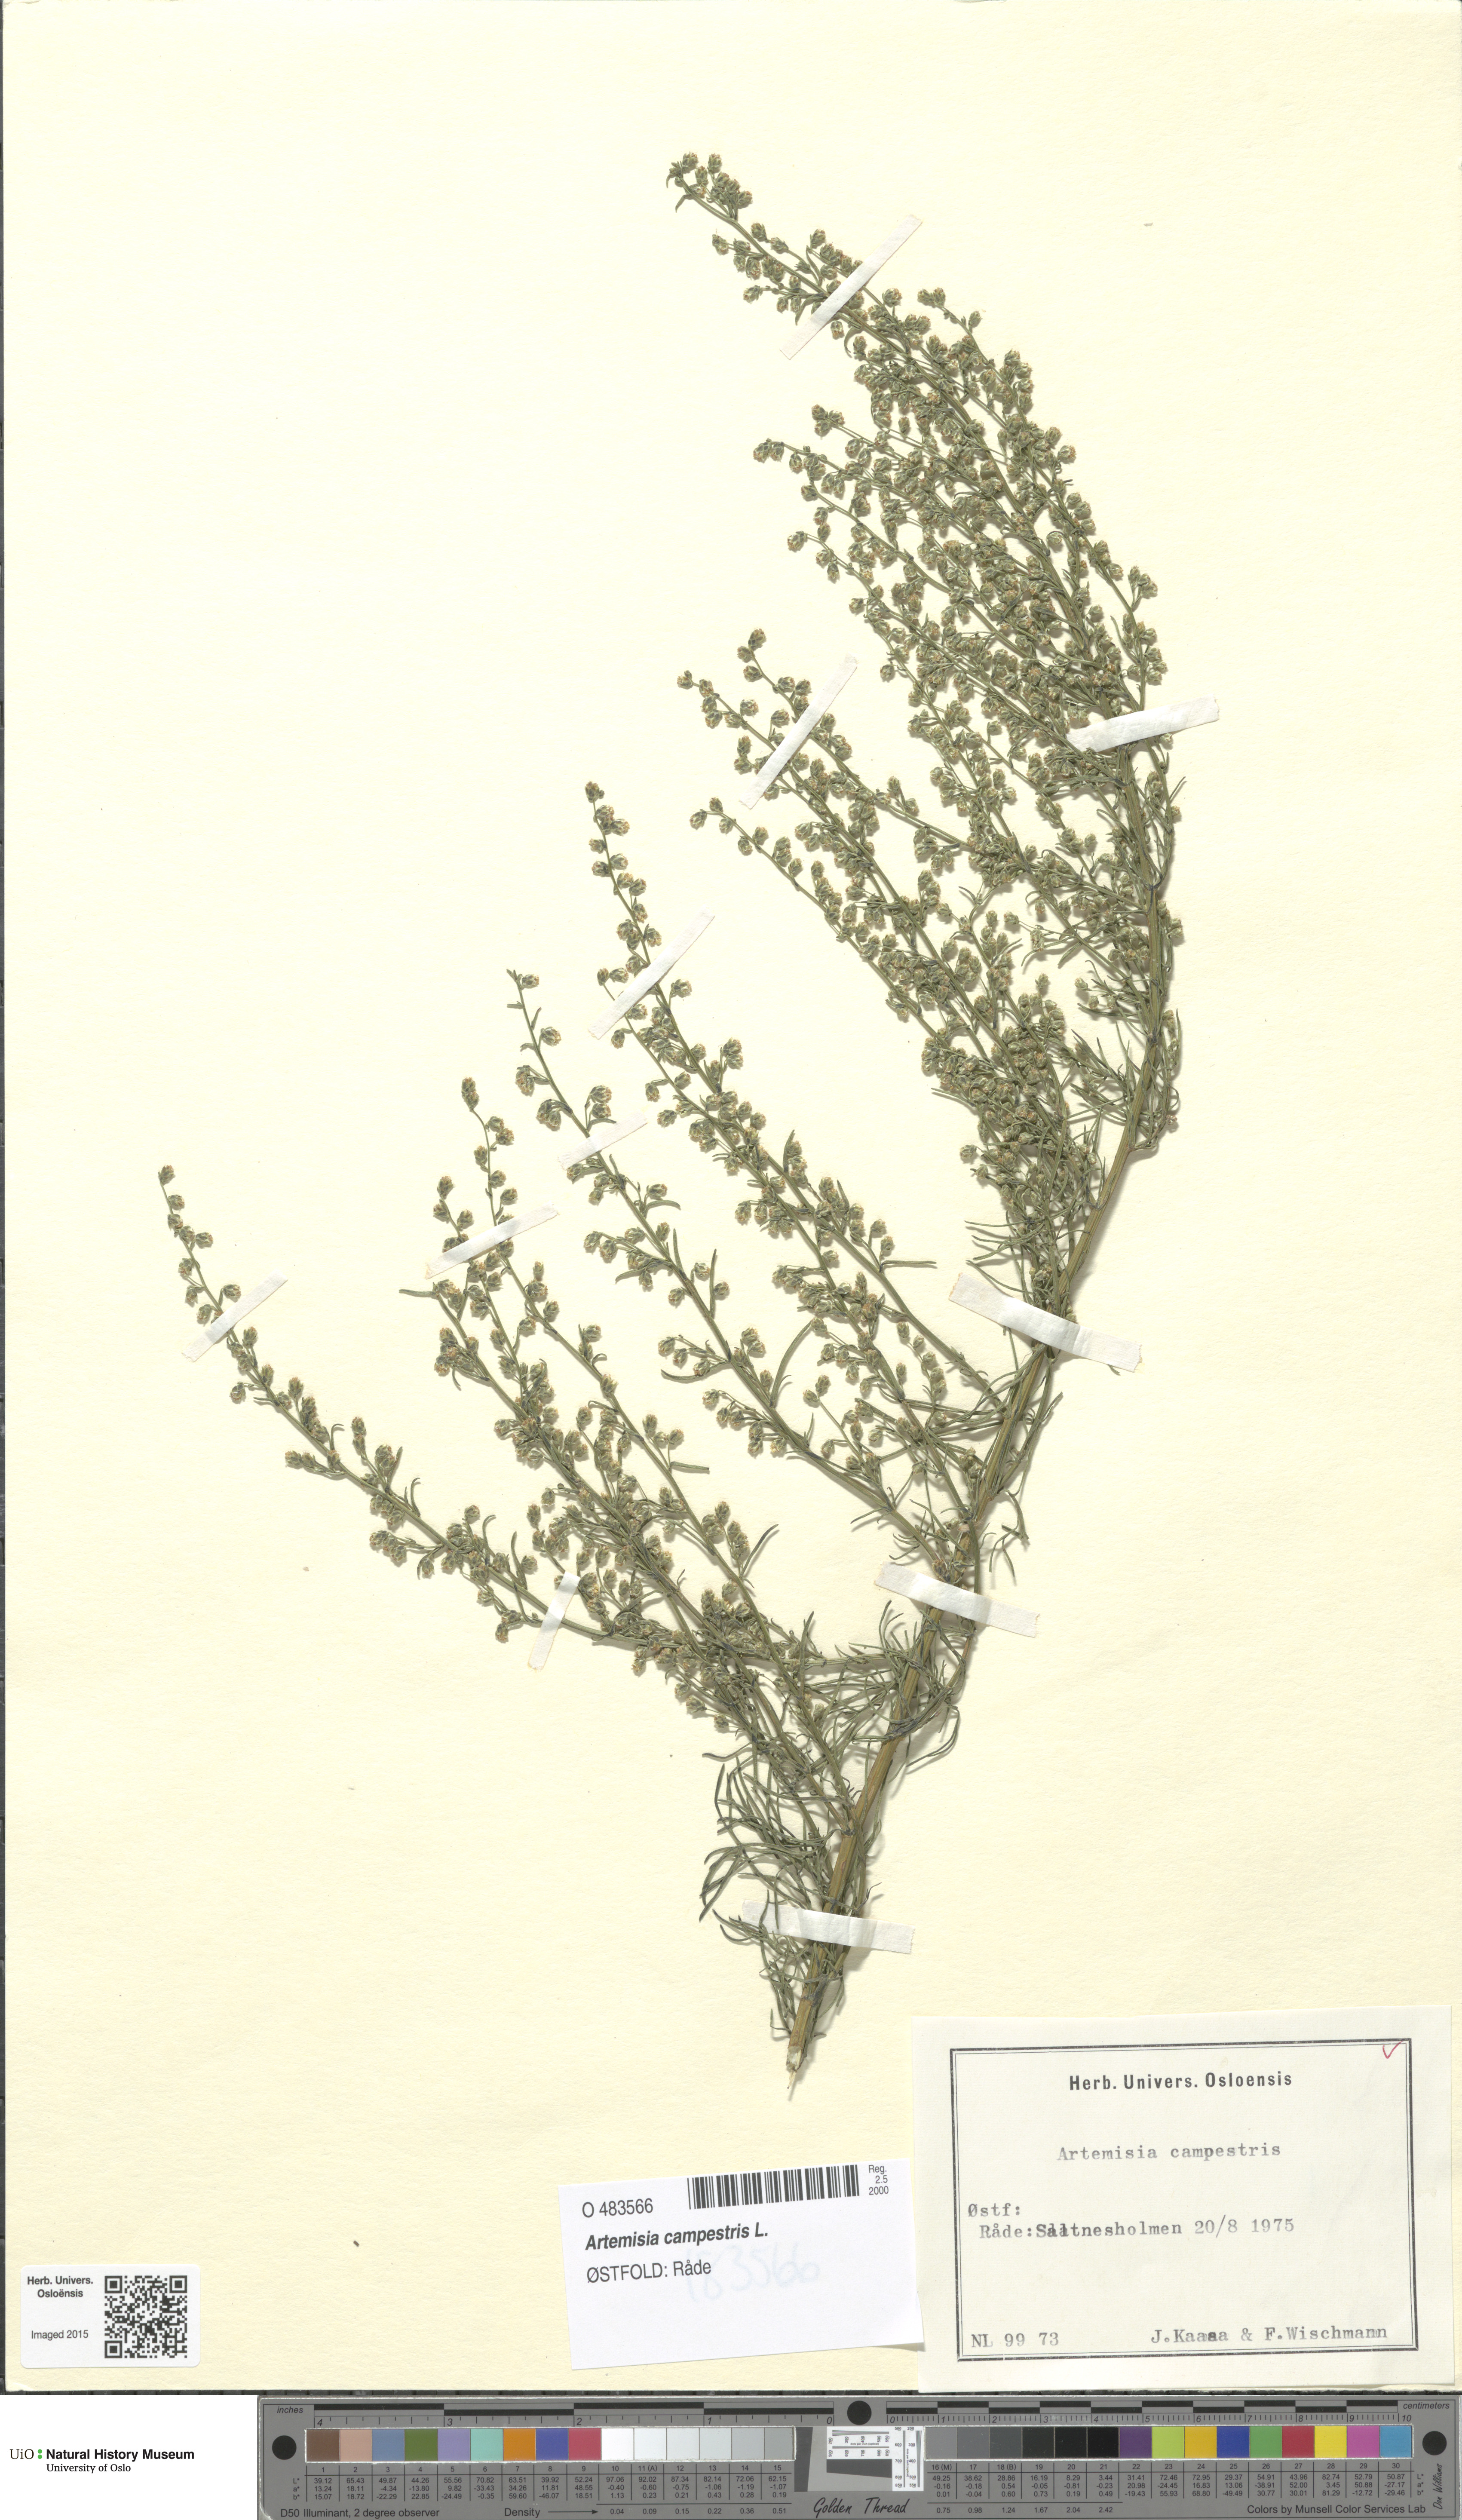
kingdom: Plantae
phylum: Tracheophyta
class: Magnoliopsida
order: Asterales
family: Asteraceae
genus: Artemisia
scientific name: Artemisia campestris
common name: Field wormwood
